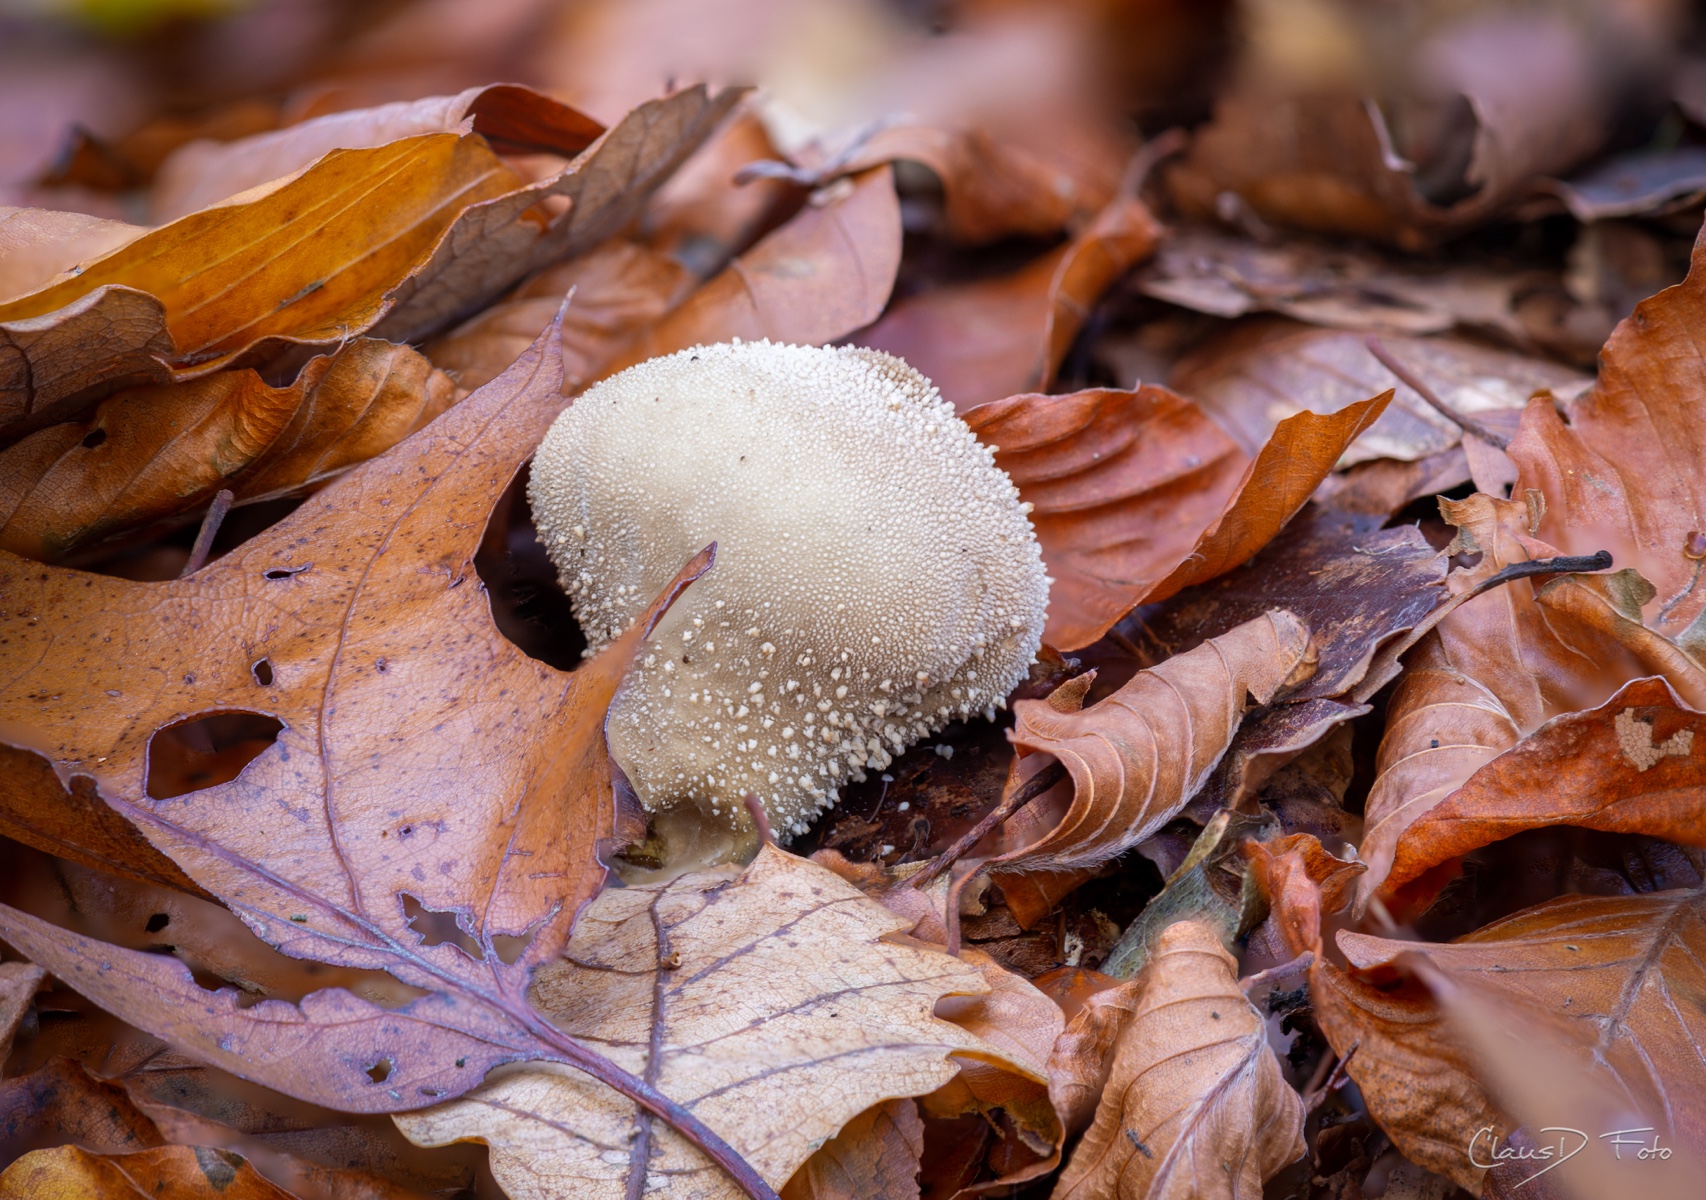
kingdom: Fungi
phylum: Basidiomycota
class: Agaricomycetes
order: Agaricales
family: Agaricaceae
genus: Lycoperdon
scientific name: Lycoperdon
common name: støvbold
